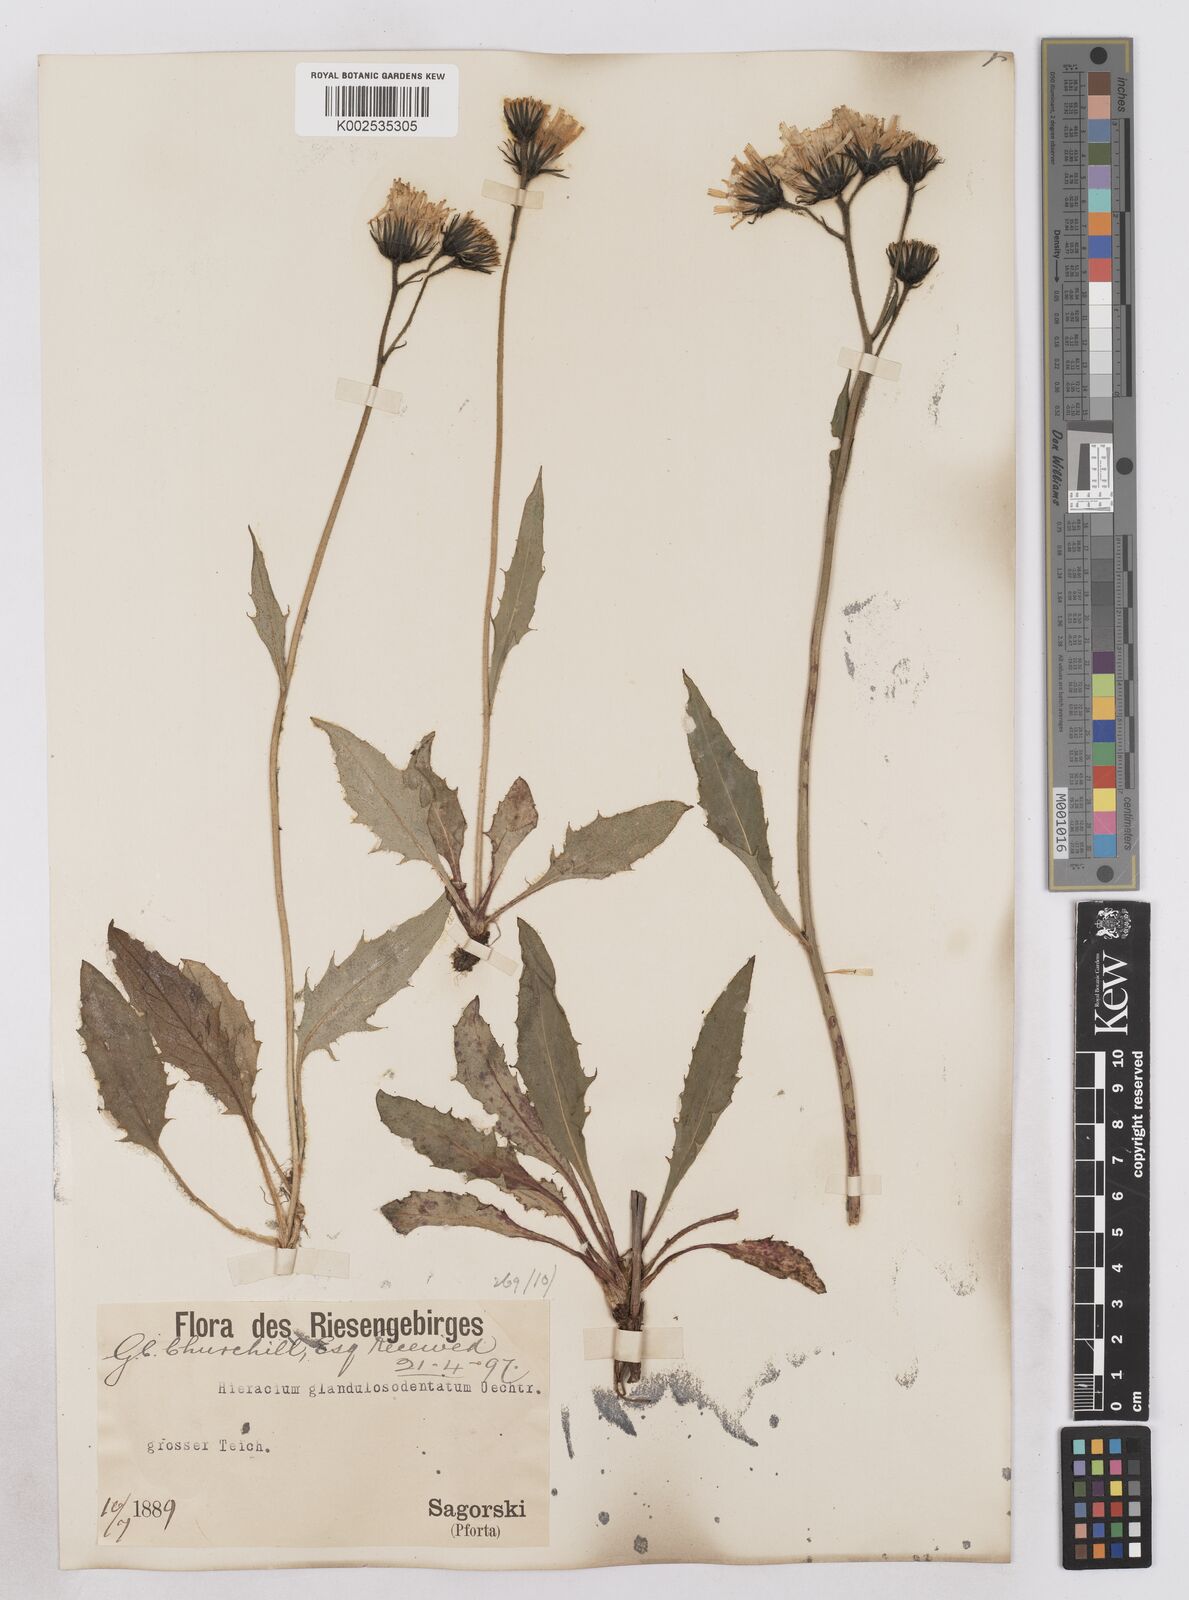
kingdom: Plantae
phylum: Tracheophyta
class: Magnoliopsida
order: Asterales
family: Asteraceae
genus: Hieracium
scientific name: Hieracium bocconei
